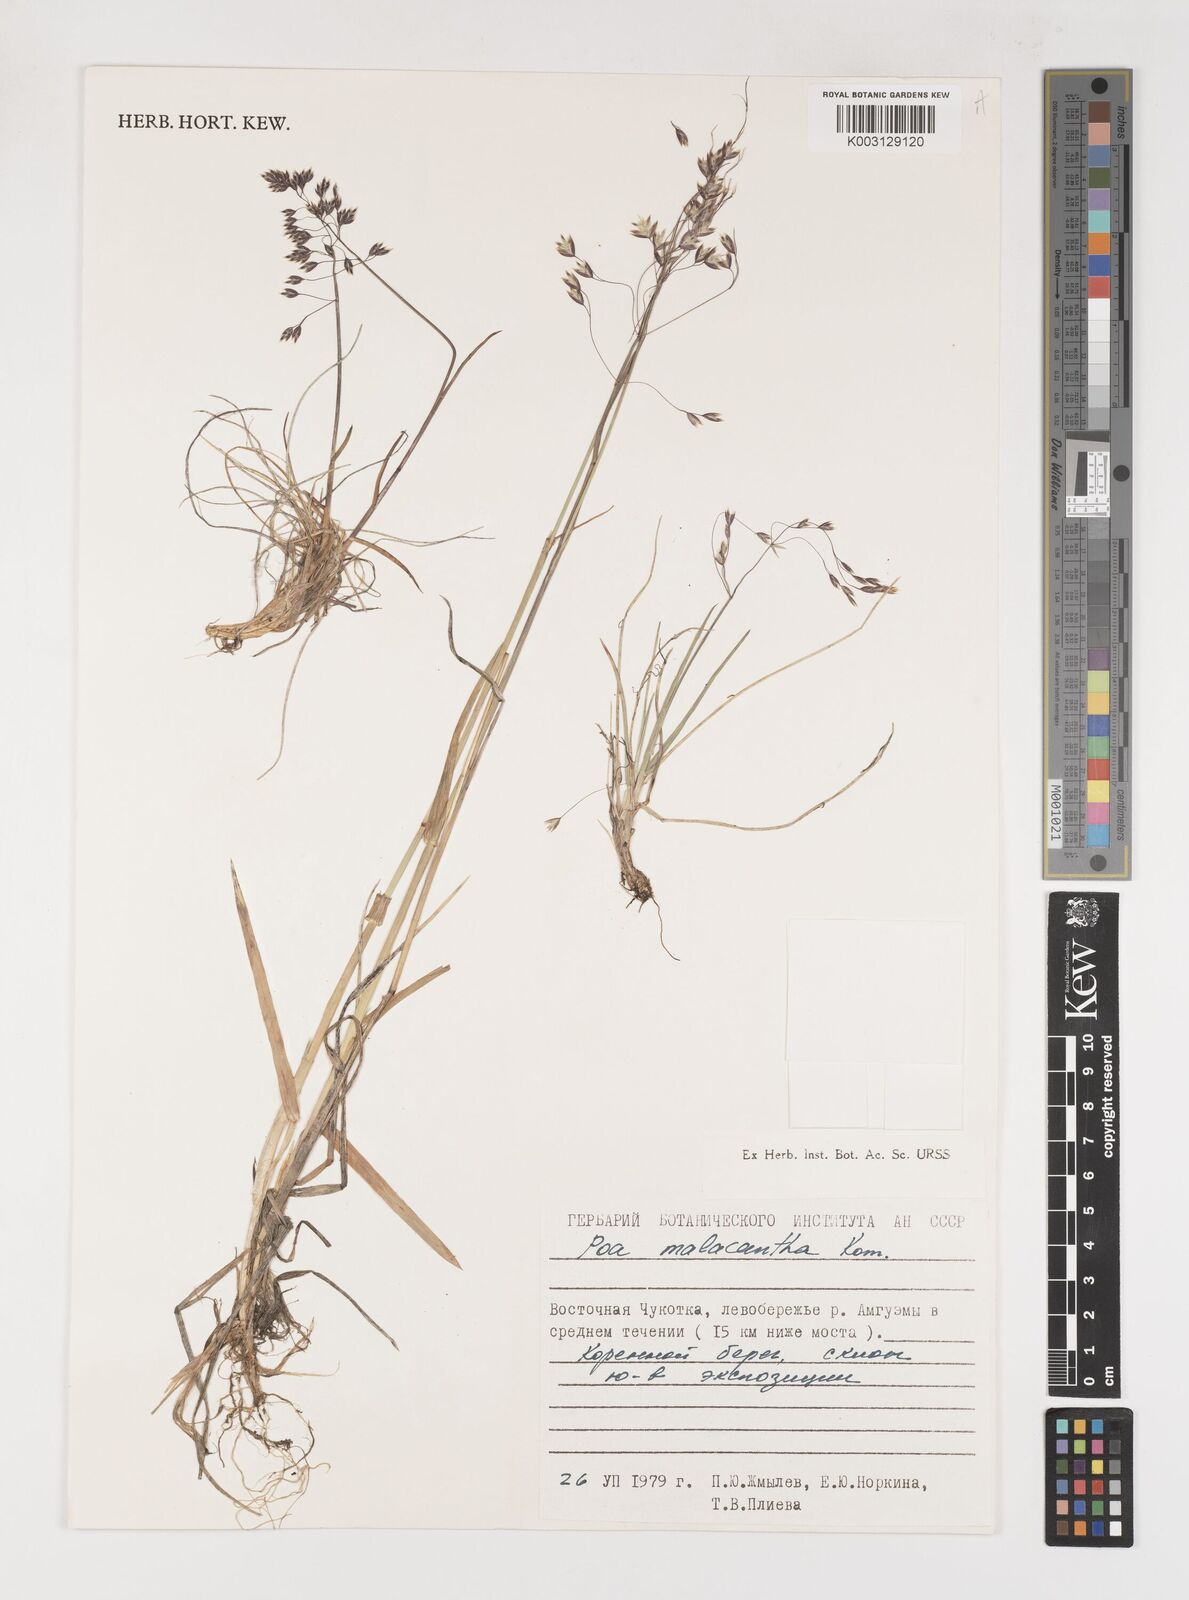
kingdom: Plantae
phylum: Tracheophyta
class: Liliopsida
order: Poales
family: Poaceae
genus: Poa
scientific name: Poa arctica
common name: Arctic bluegrass
